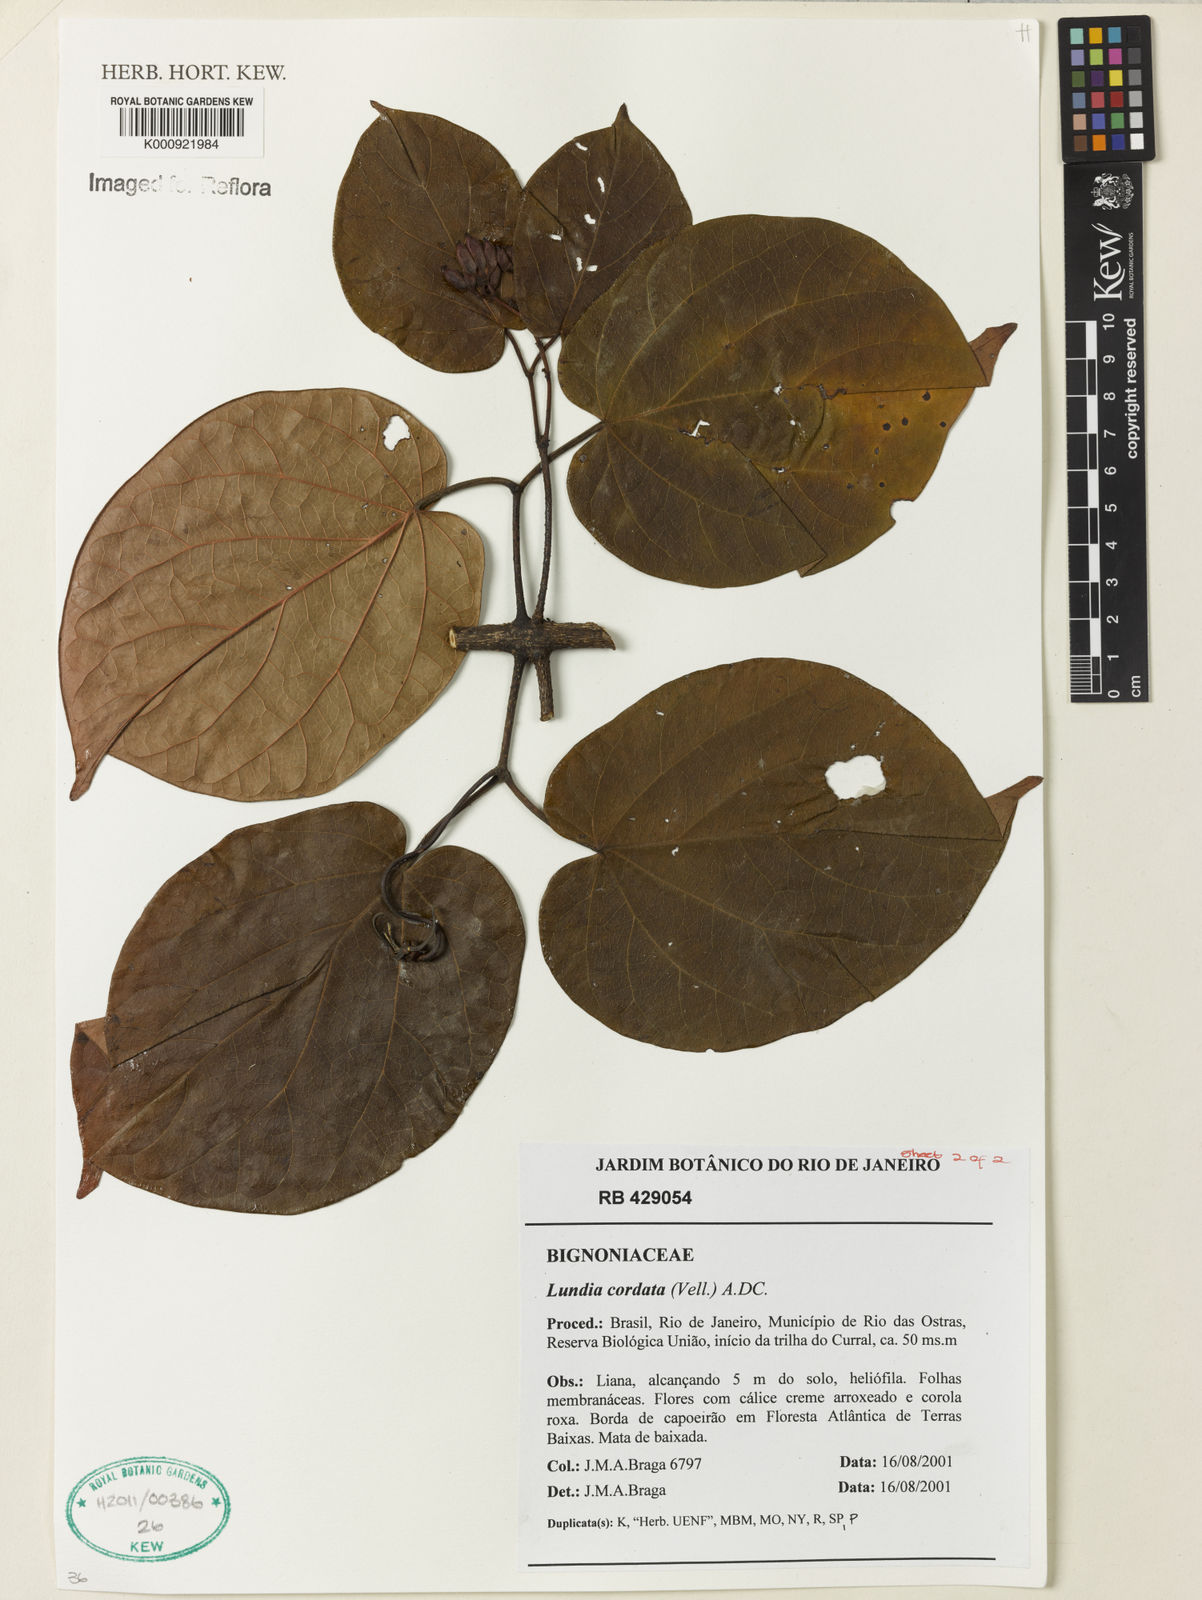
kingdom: Plantae
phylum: Tracheophyta
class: Magnoliopsida
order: Lamiales
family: Bignoniaceae
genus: Lundia
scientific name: Lundia corymbifera
